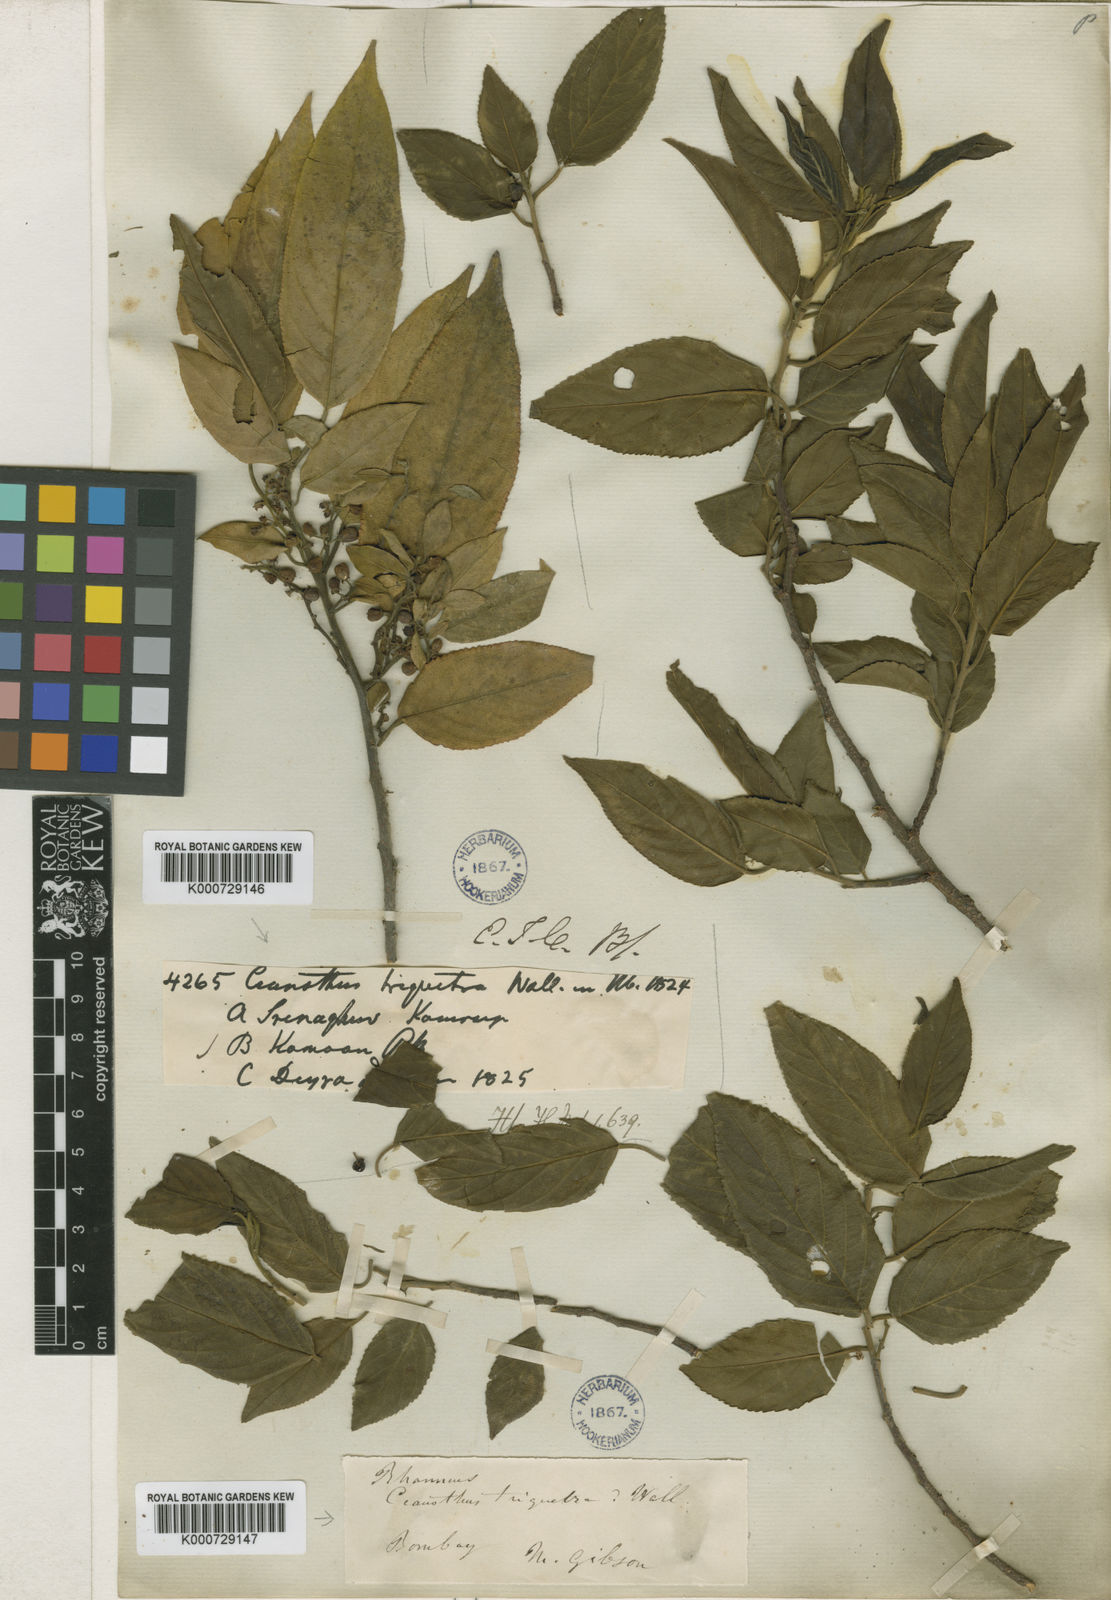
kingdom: Plantae
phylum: Tracheophyta
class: Magnoliopsida
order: Rosales
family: Rhamnaceae
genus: Rhamnus
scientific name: Rhamnus triquetra
